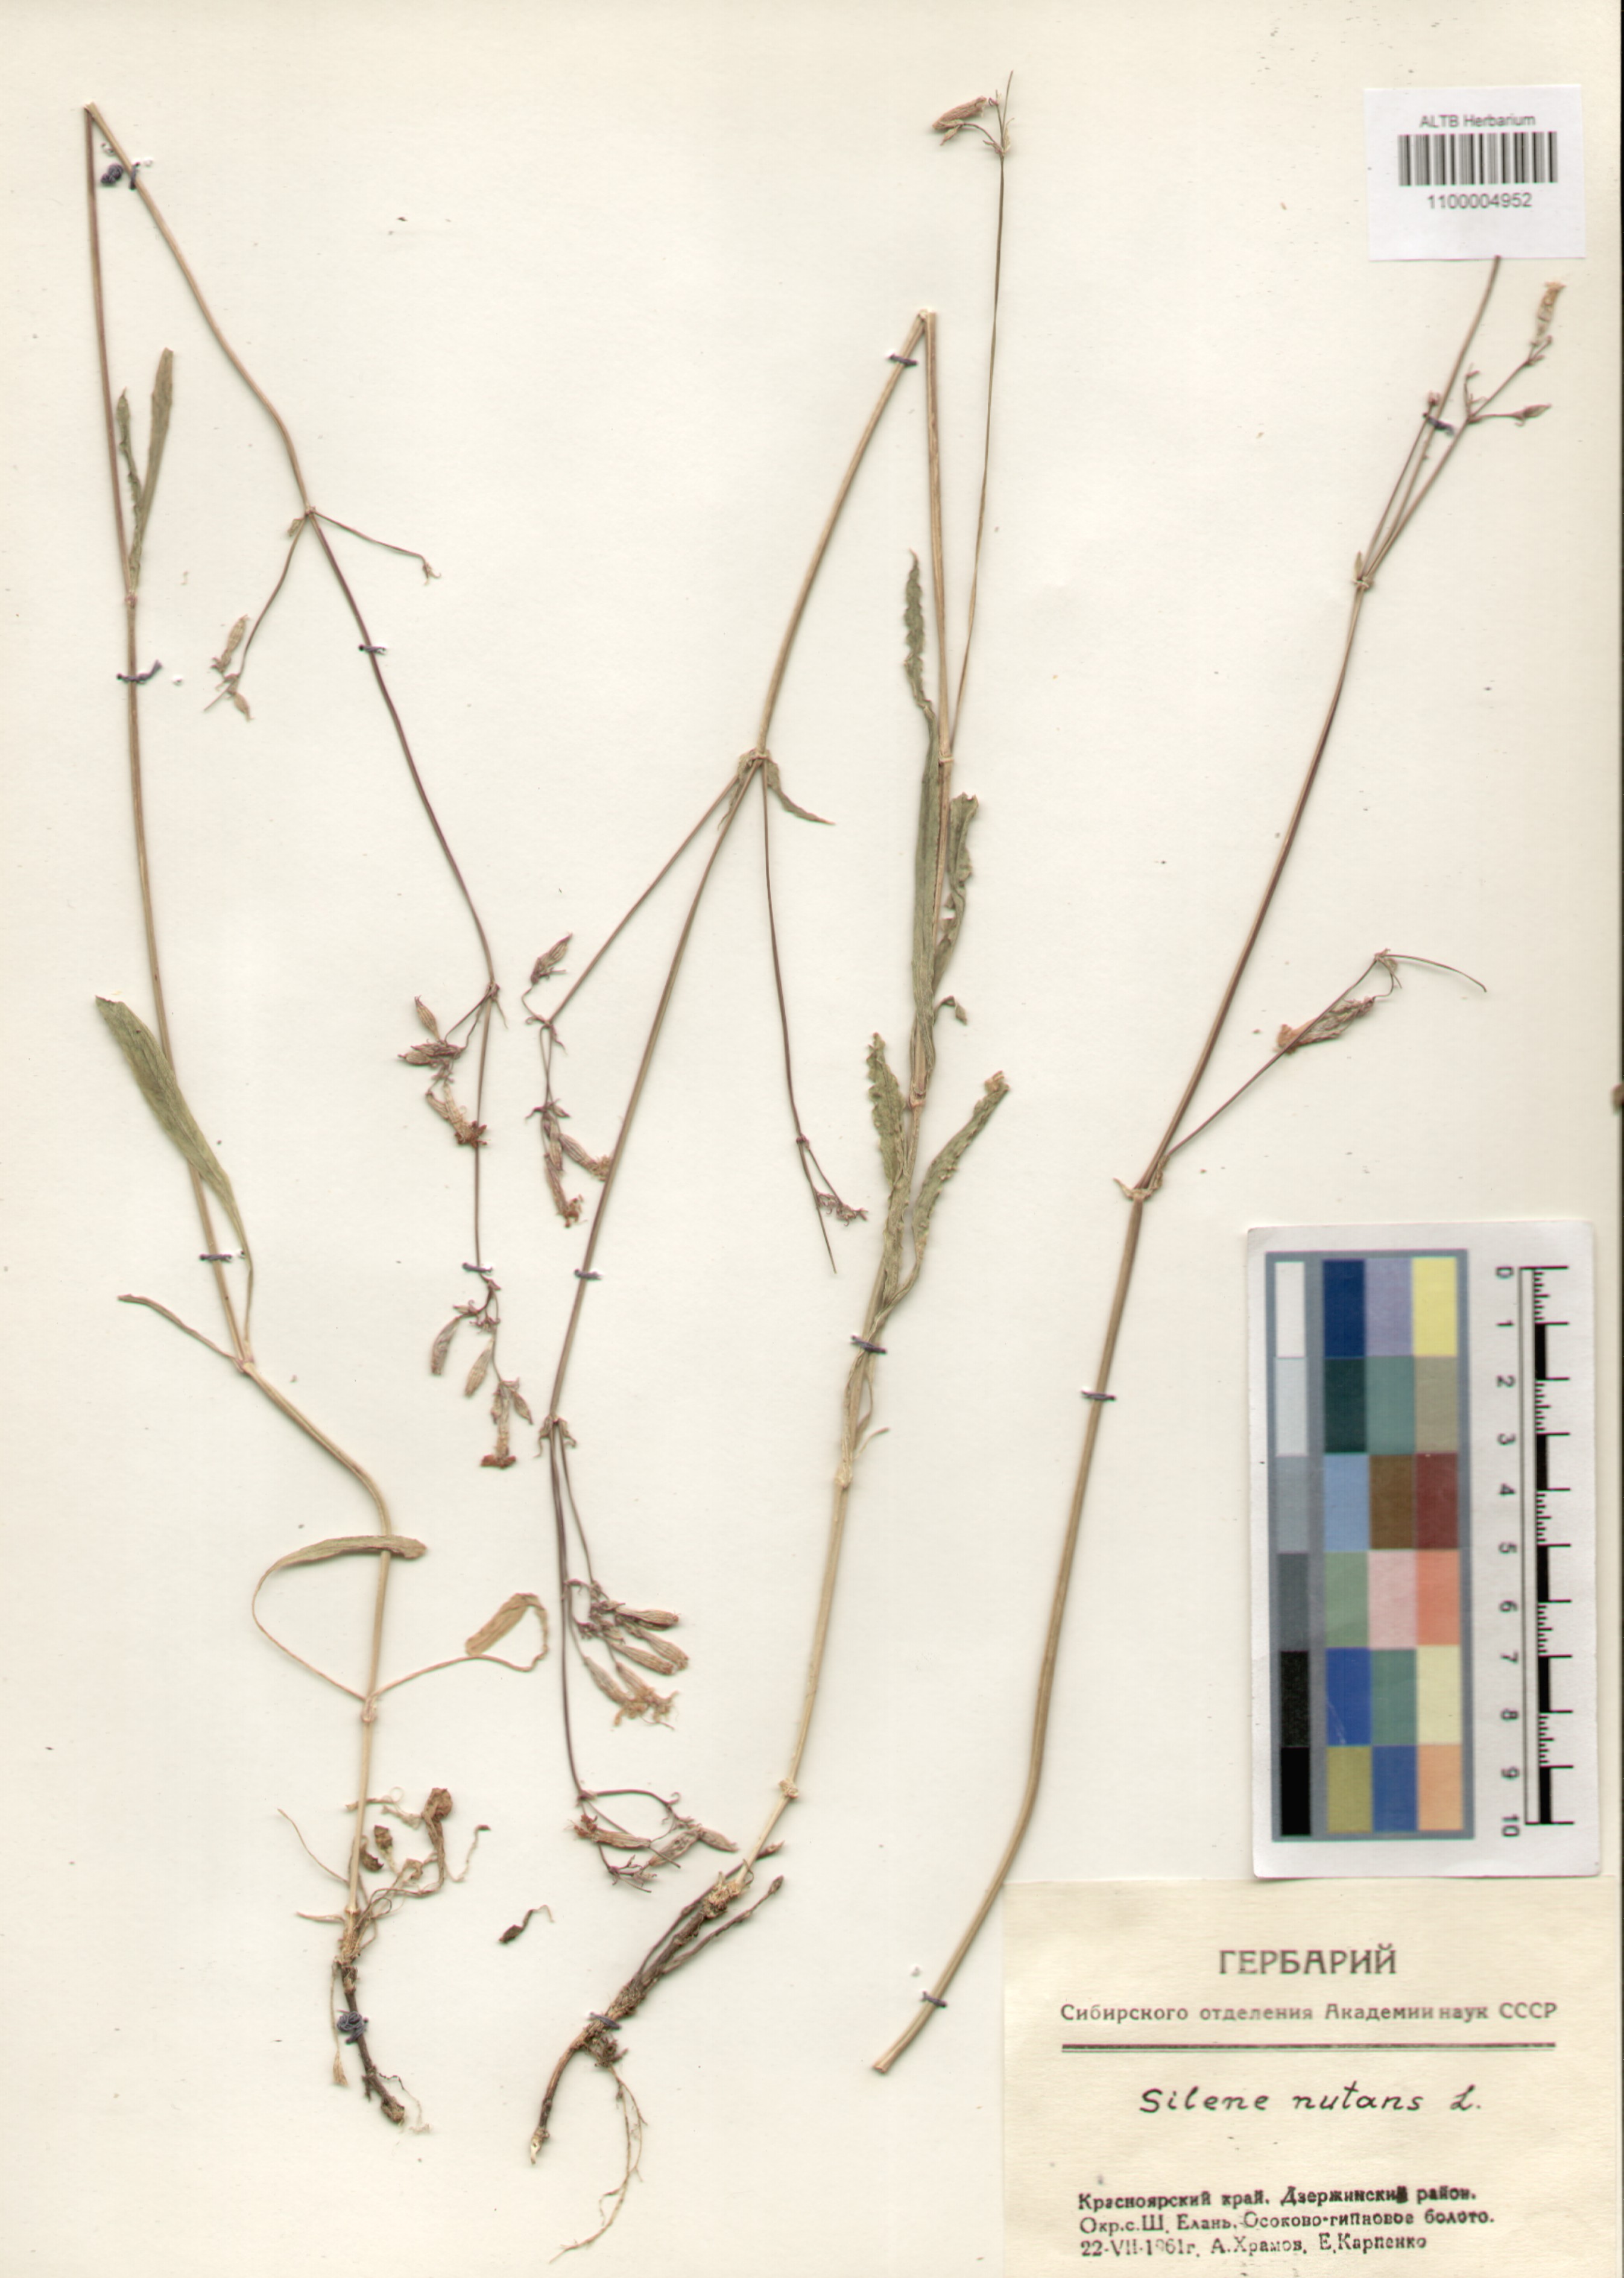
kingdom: Plantae
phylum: Tracheophyta
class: Magnoliopsida
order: Caryophyllales
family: Caryophyllaceae
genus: Silene
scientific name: Silene nutans
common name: Nottingham catchfly
